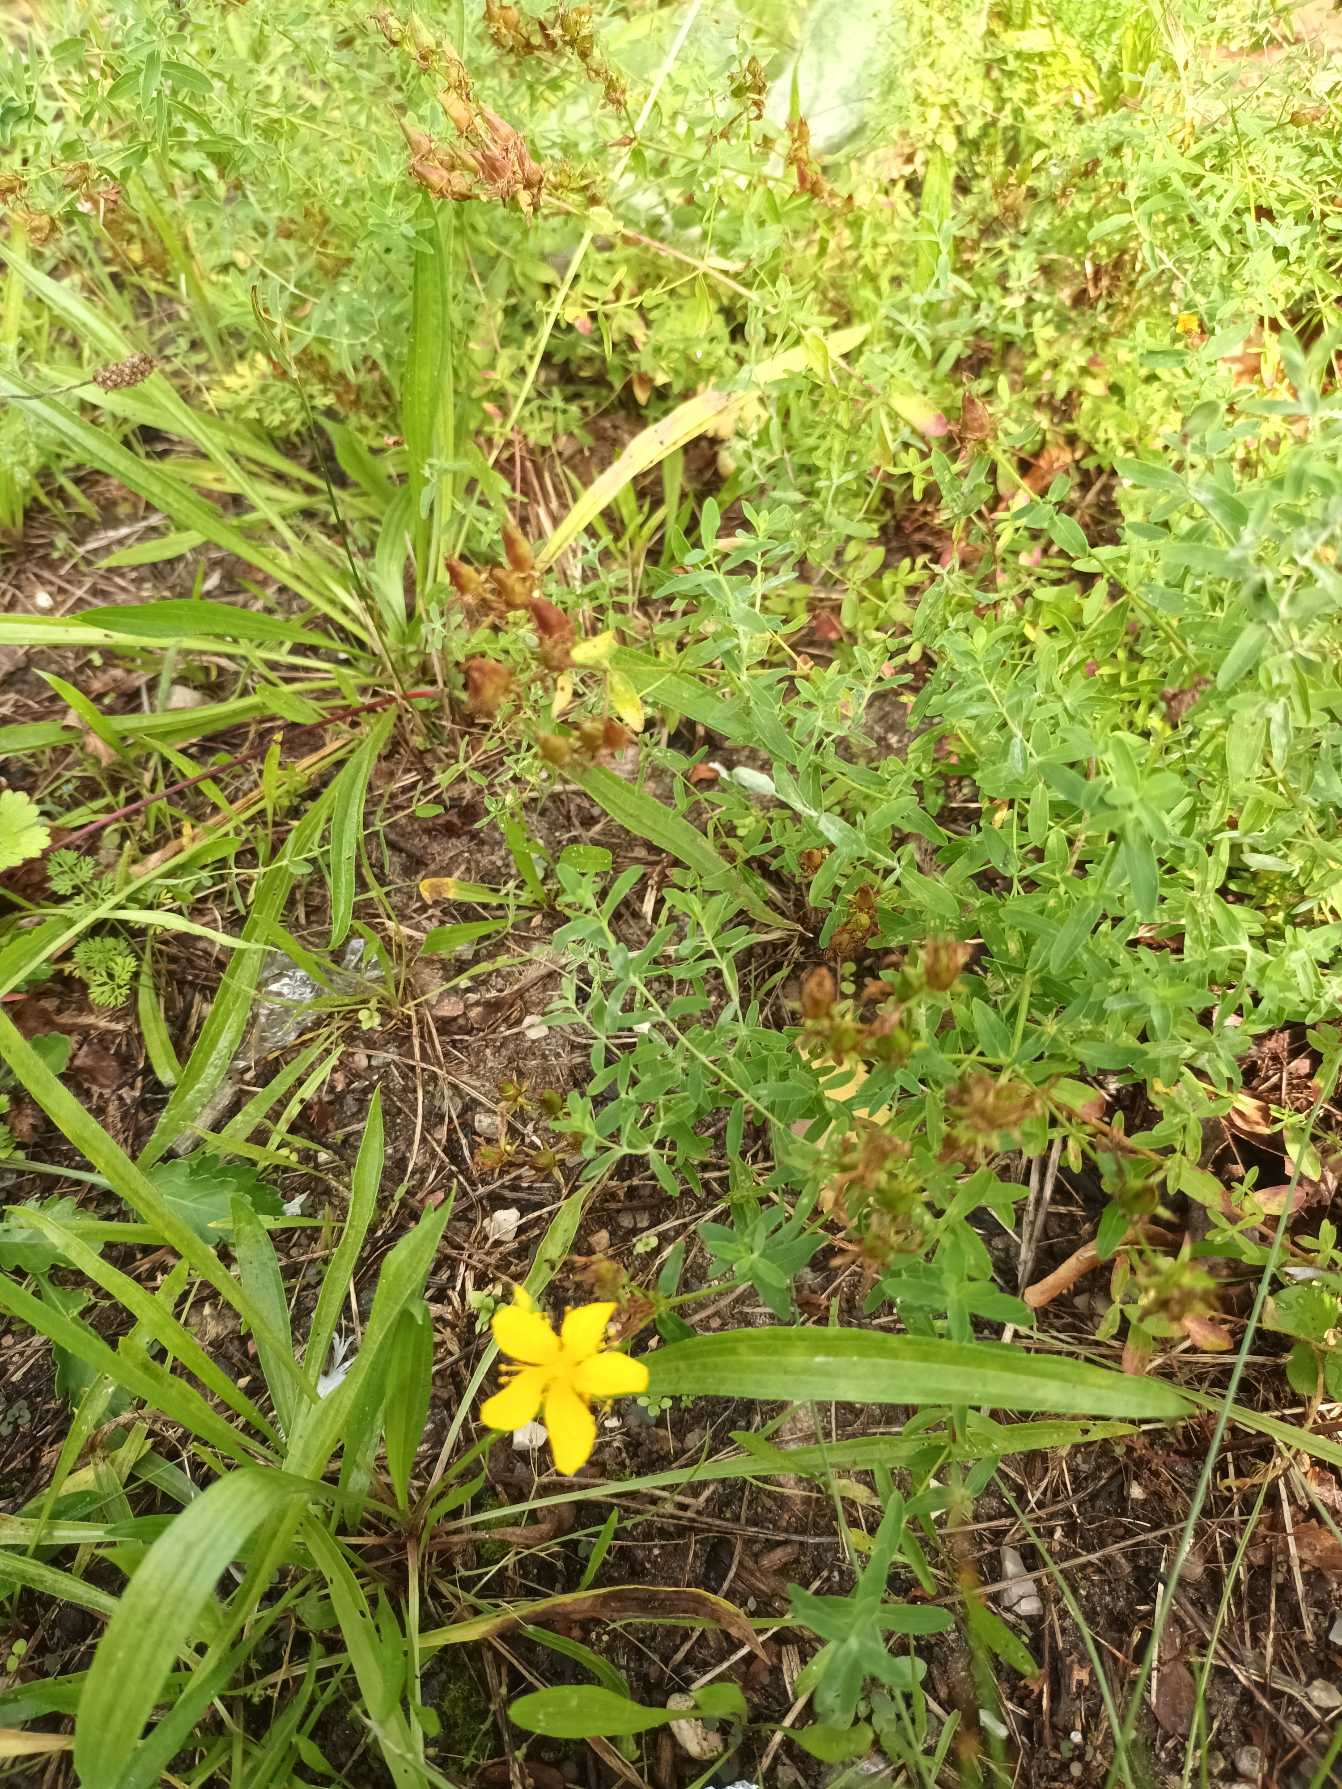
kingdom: Plantae
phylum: Tracheophyta
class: Magnoliopsida
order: Malpighiales
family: Hypericaceae
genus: Hypericum
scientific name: Hypericum perforatum
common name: Prikbladet perikon
